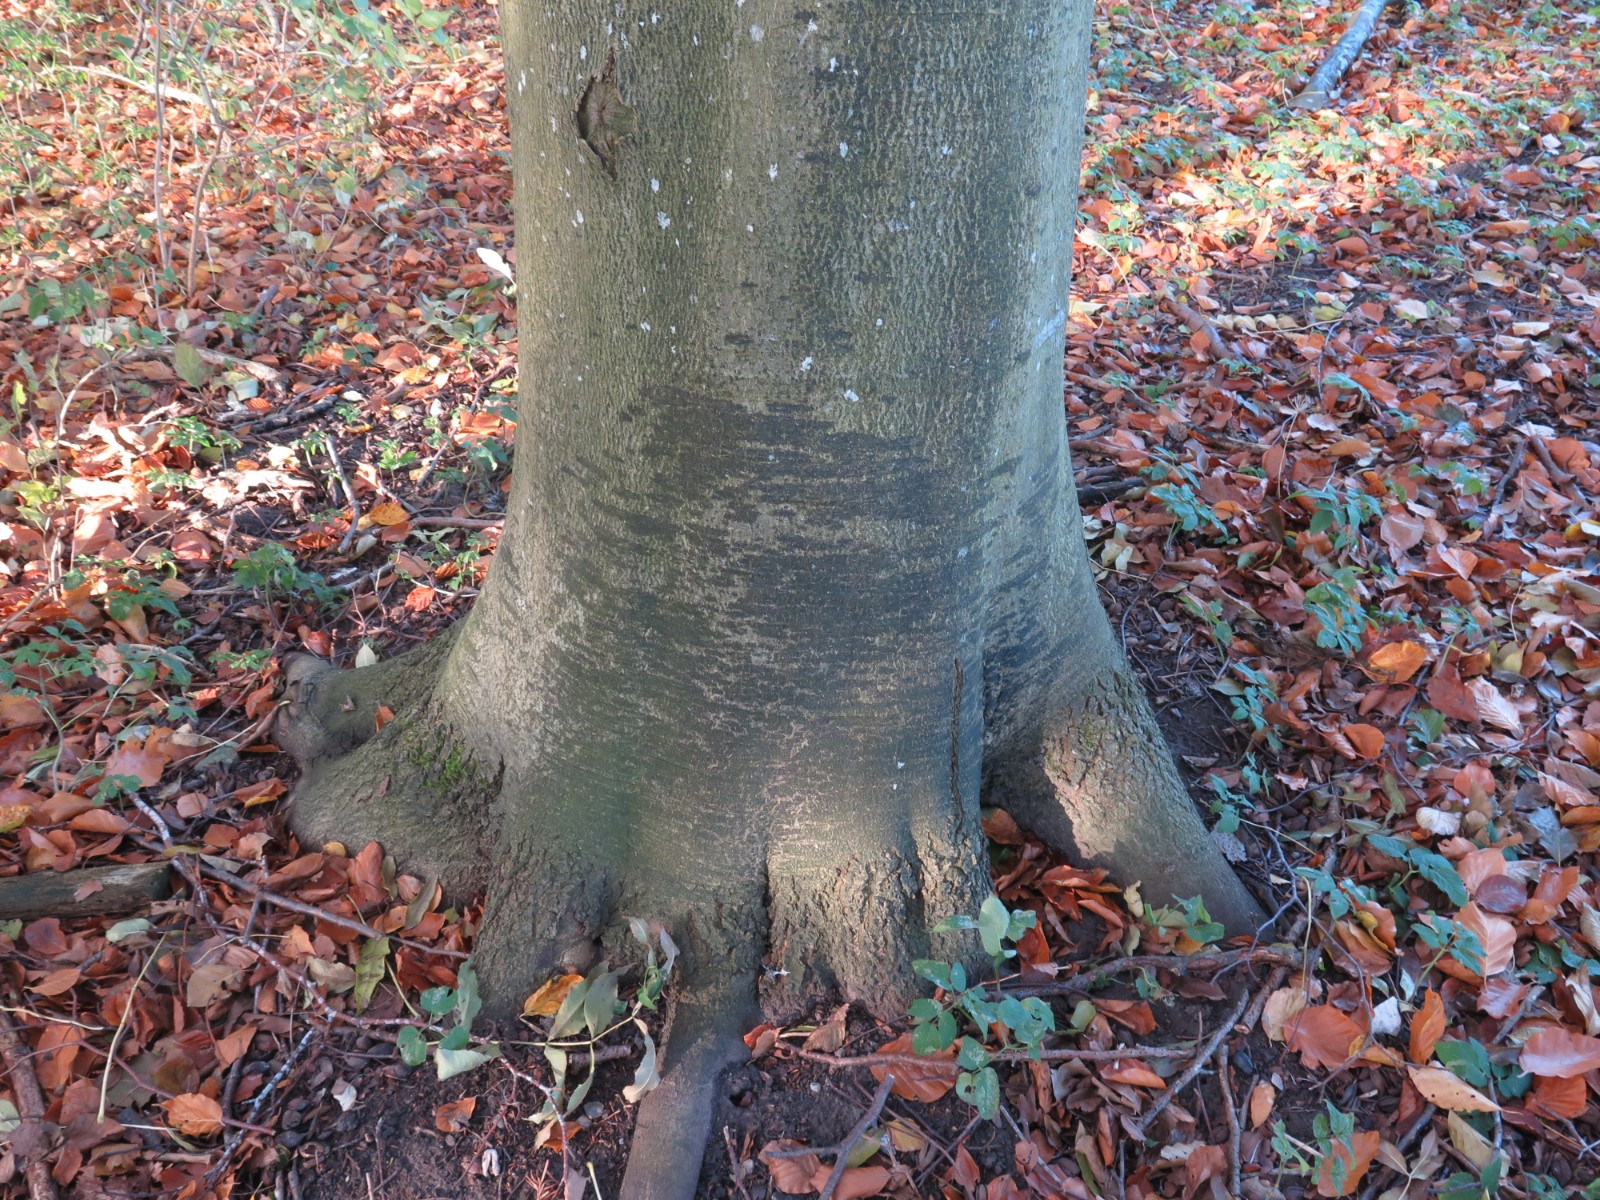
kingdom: Fungi
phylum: Ascomycota
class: Leotiomycetes
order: Rhytismatales
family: Ascodichaenaceae
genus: Ascodichaena
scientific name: Ascodichaena rugosa
